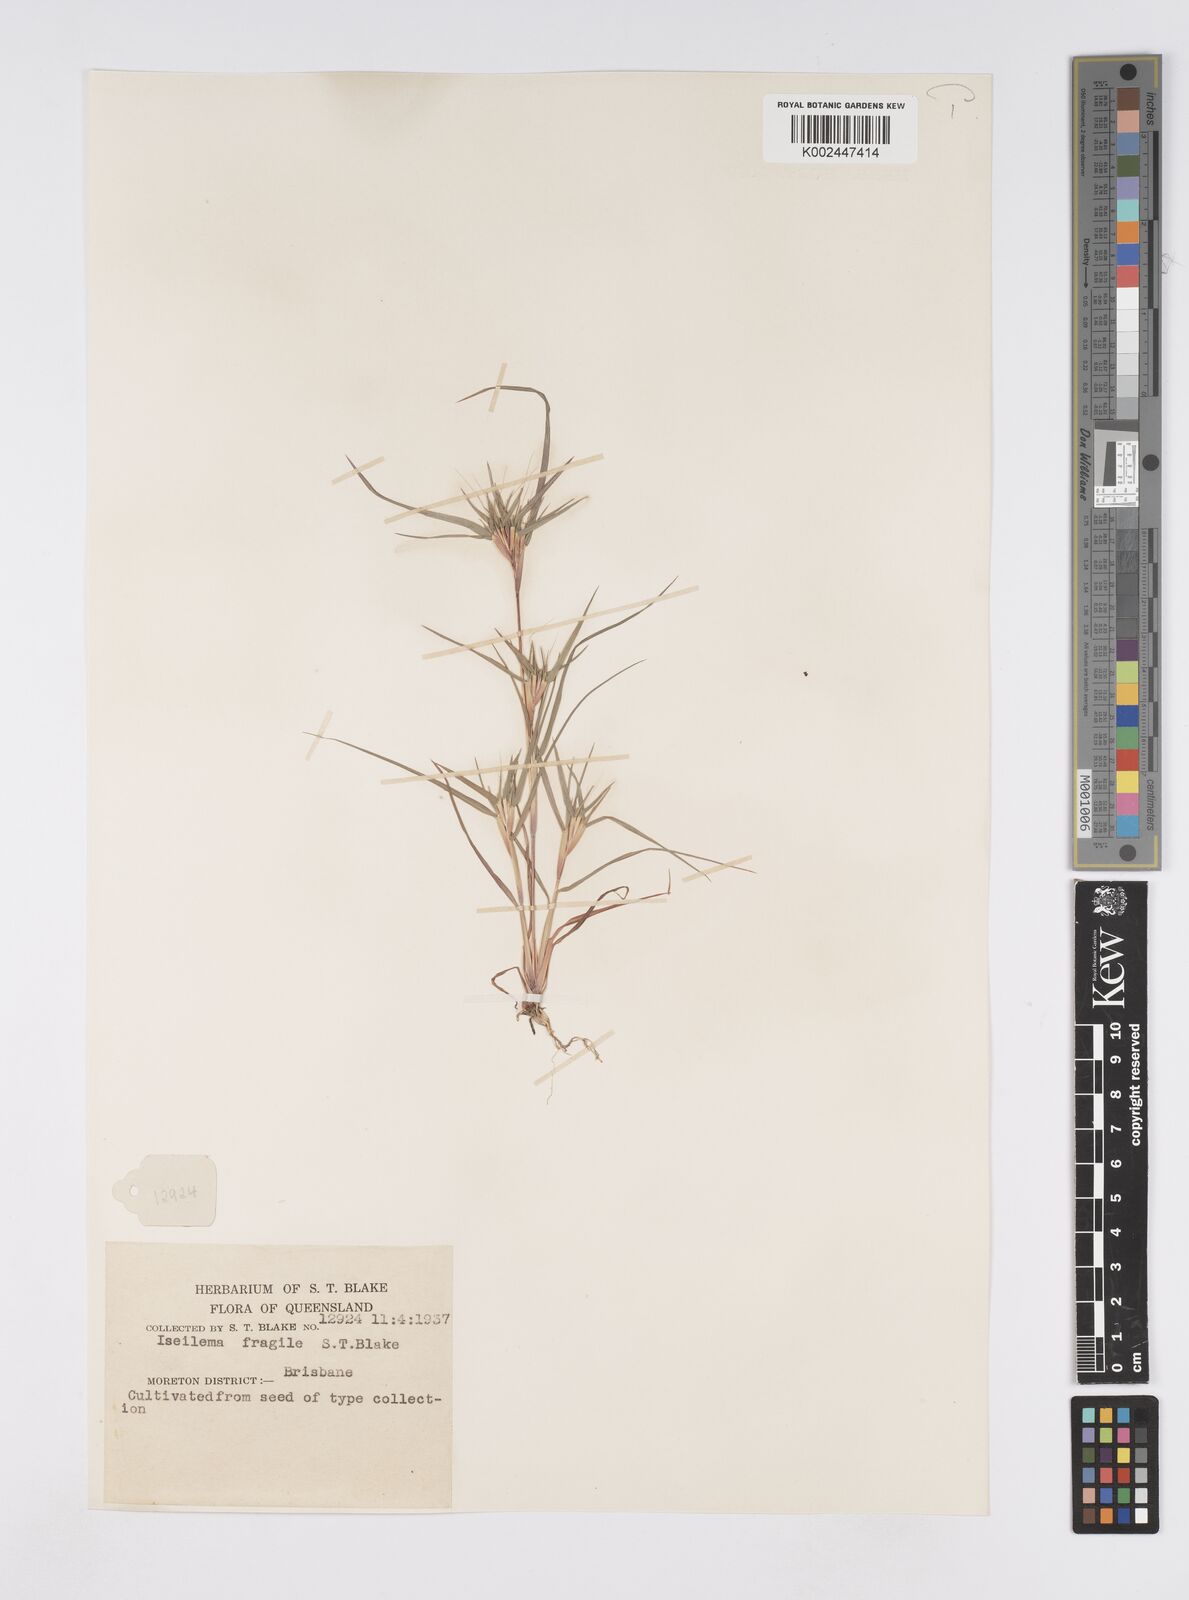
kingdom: Plantae
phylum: Tracheophyta
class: Liliopsida
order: Poales
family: Poaceae
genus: Iseilema
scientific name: Iseilema fragile
